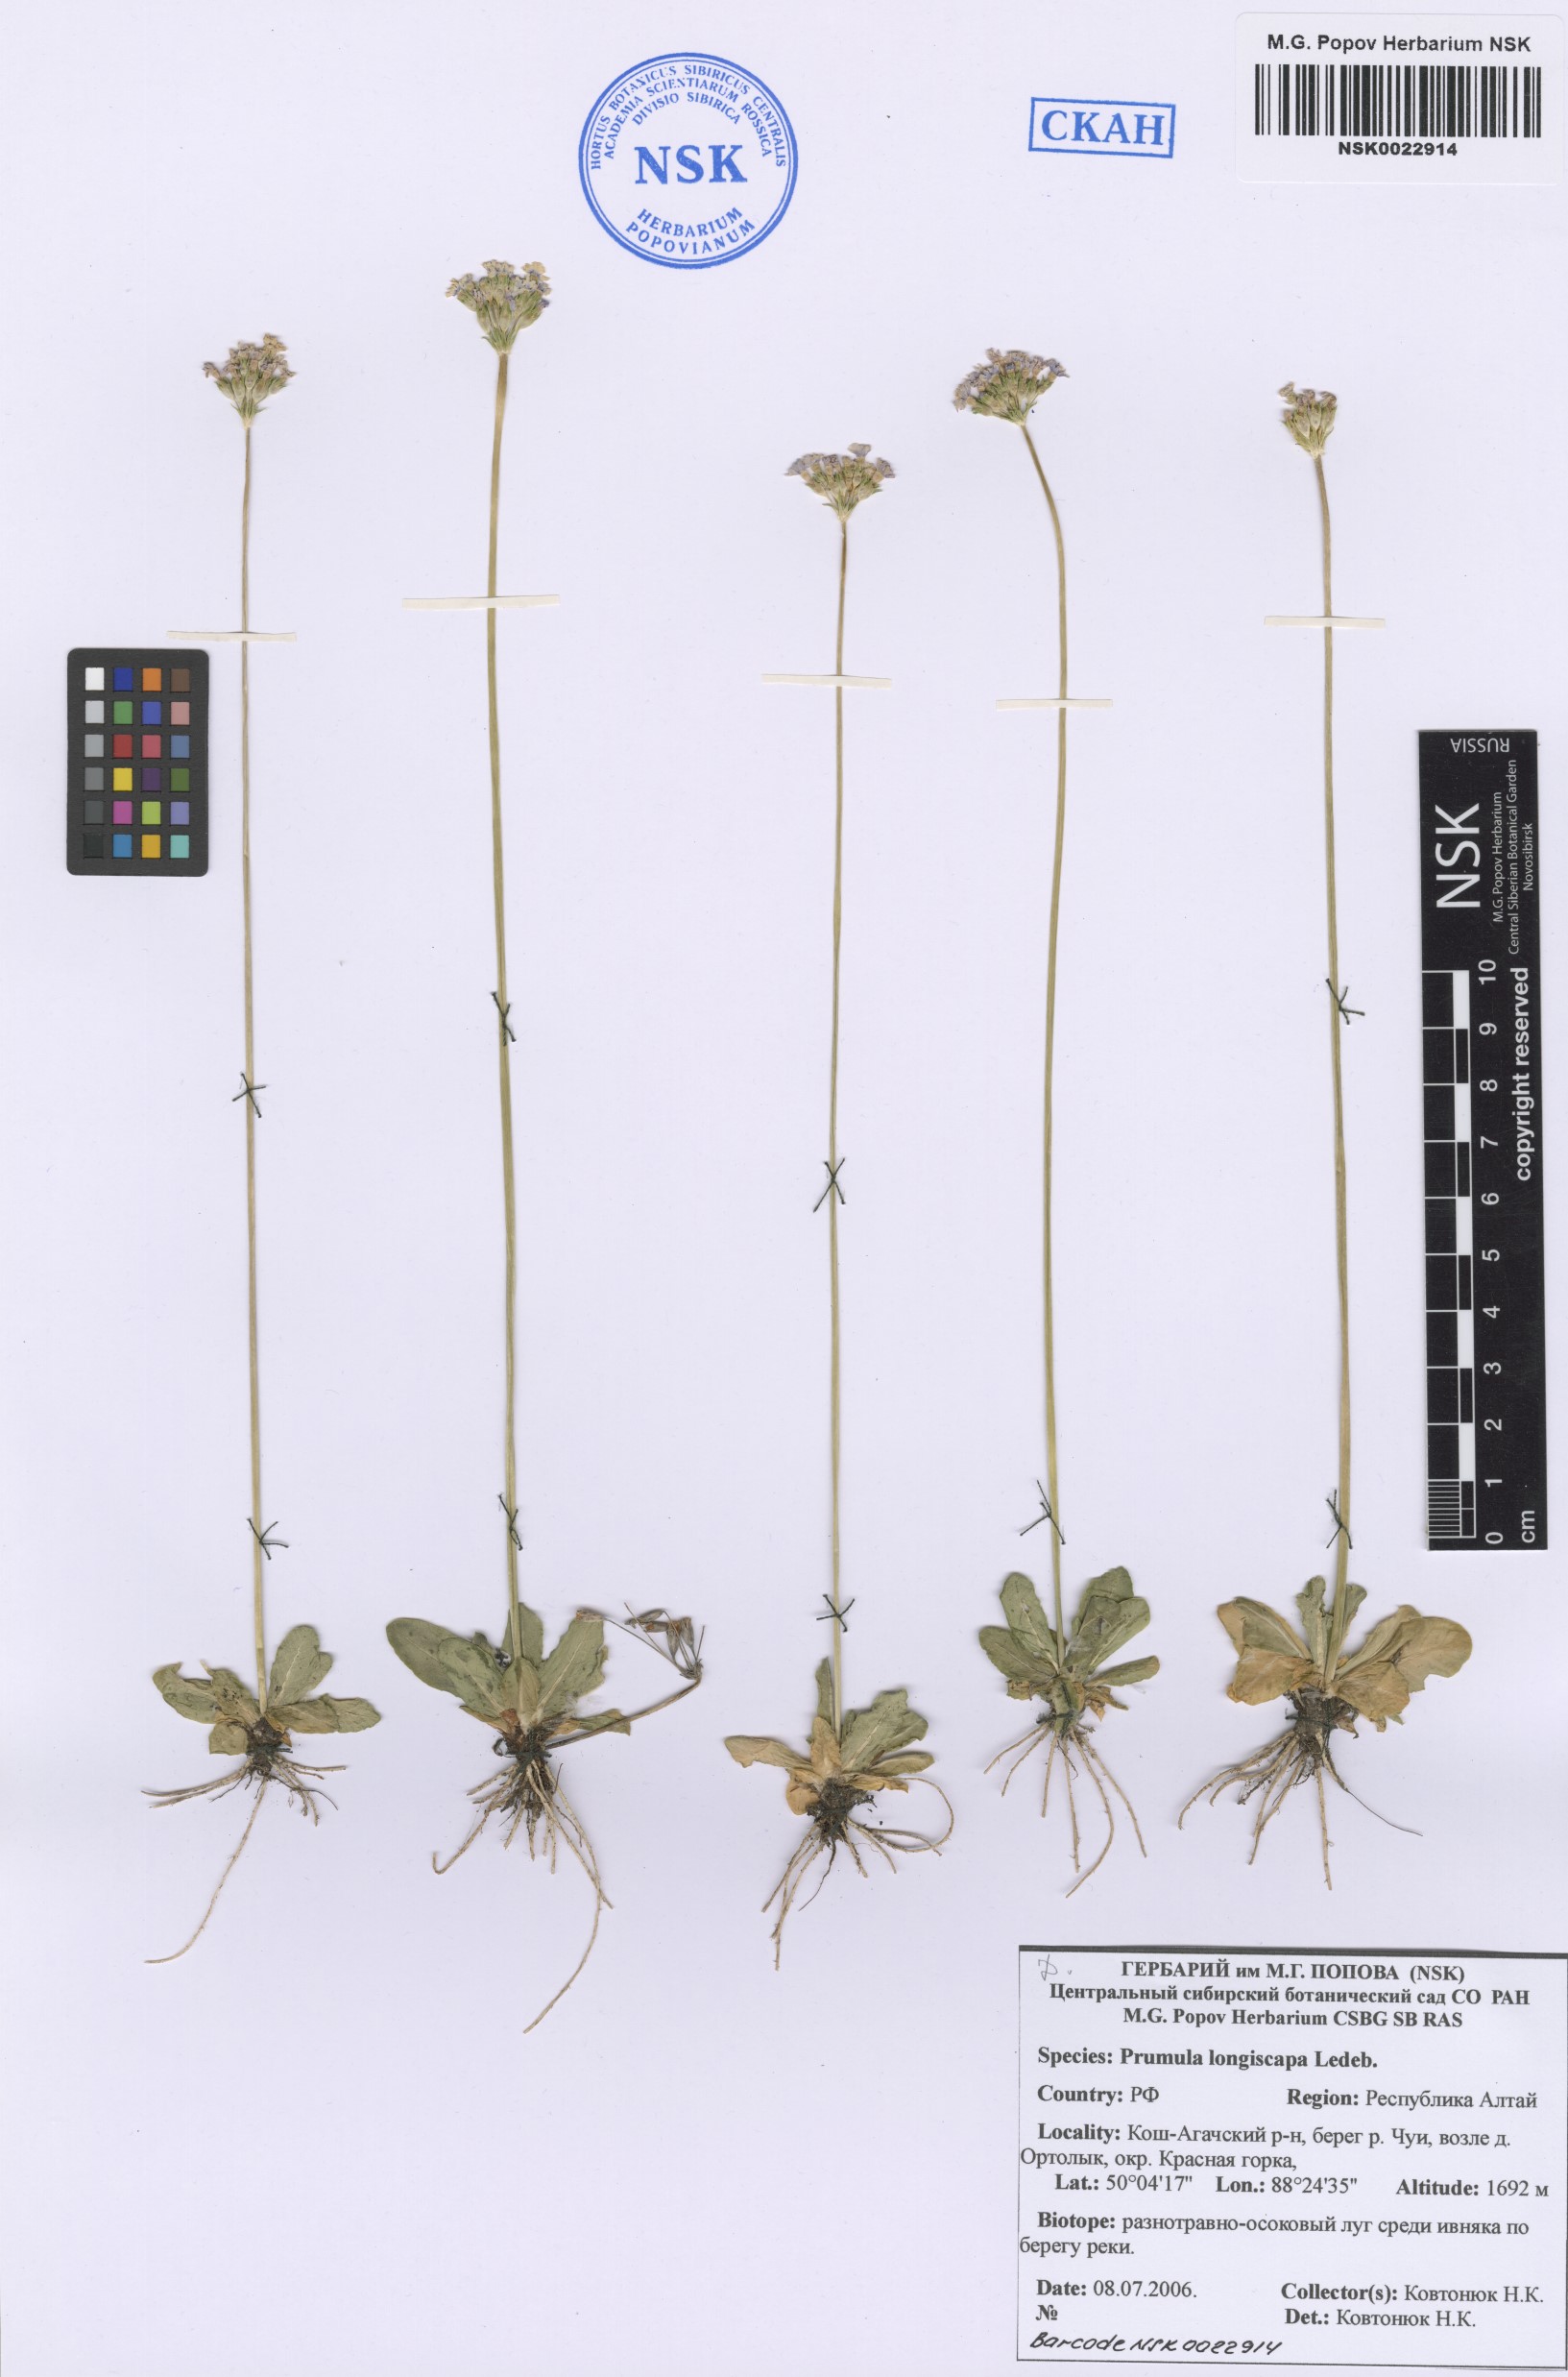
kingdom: Plantae
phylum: Tracheophyta
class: Magnoliopsida
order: Ericales
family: Primulaceae
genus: Primula
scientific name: Primula longiscapa
